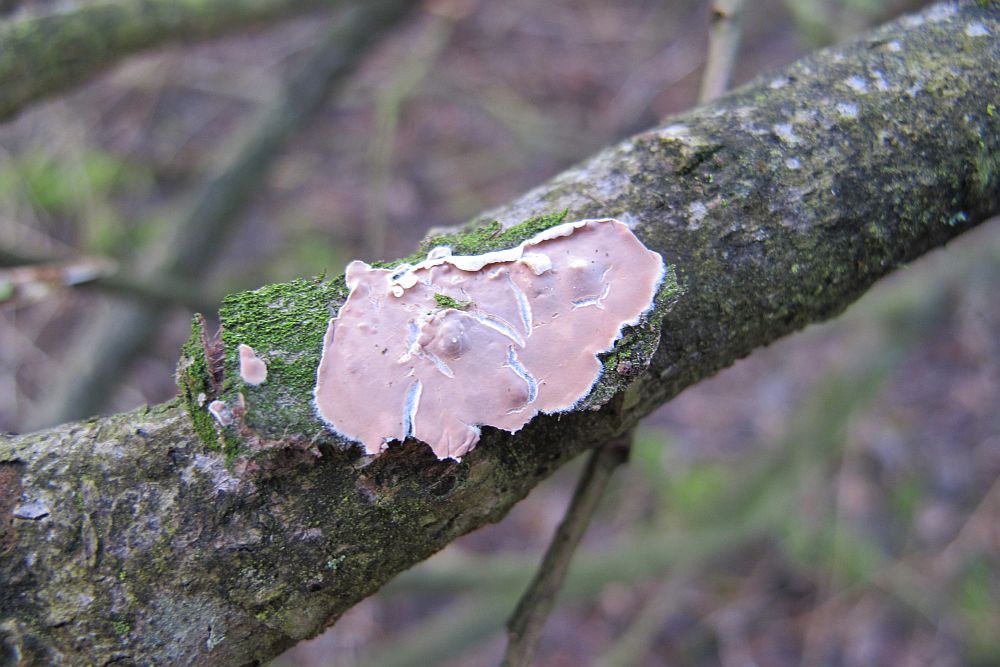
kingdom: Fungi
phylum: Basidiomycota
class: Agaricomycetes
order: Agaricales
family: Physalacriaceae
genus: Cylindrobasidium
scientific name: Cylindrobasidium evolvens
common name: sprækkehinde
